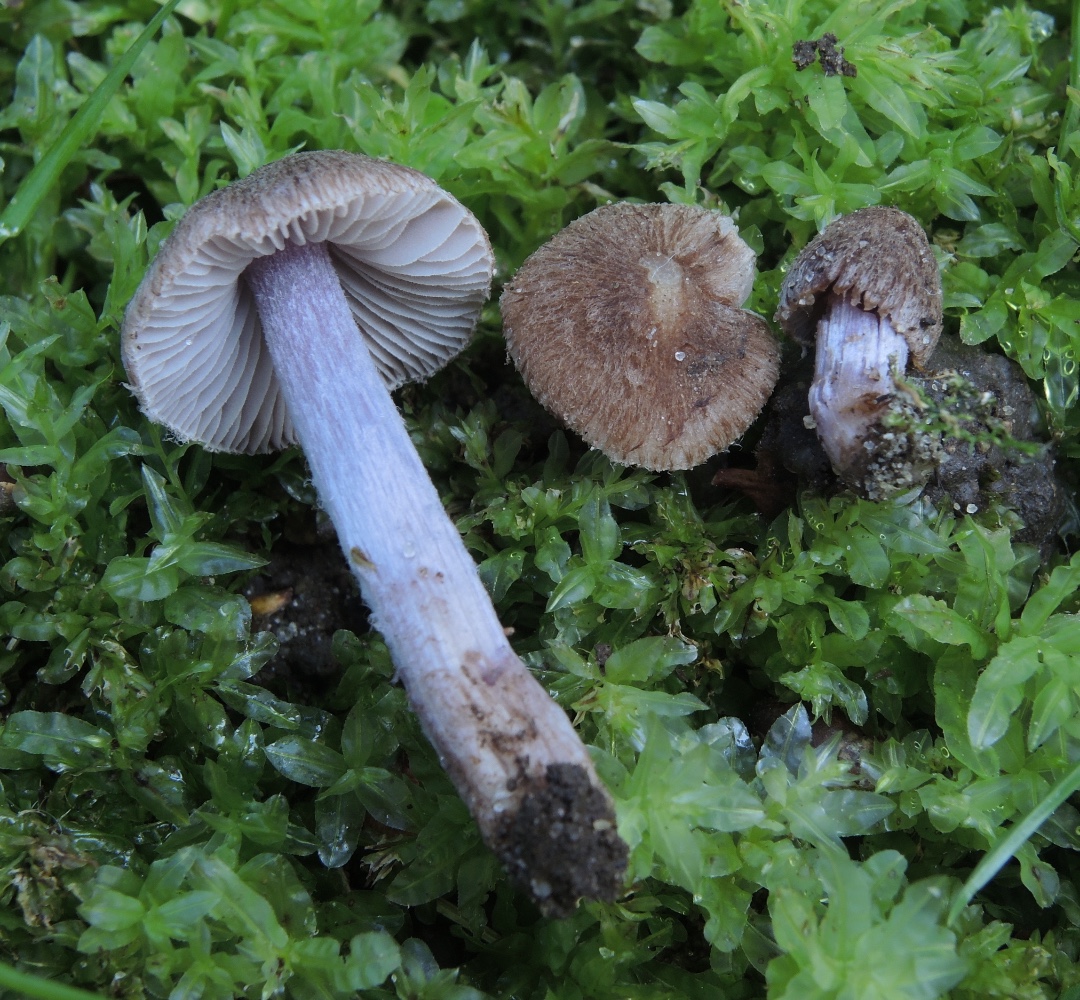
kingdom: Fungi
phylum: Basidiomycota
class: Agaricomycetes
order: Agaricales
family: Inocybaceae
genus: Inocybe
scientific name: Inocybe ianthinopes
